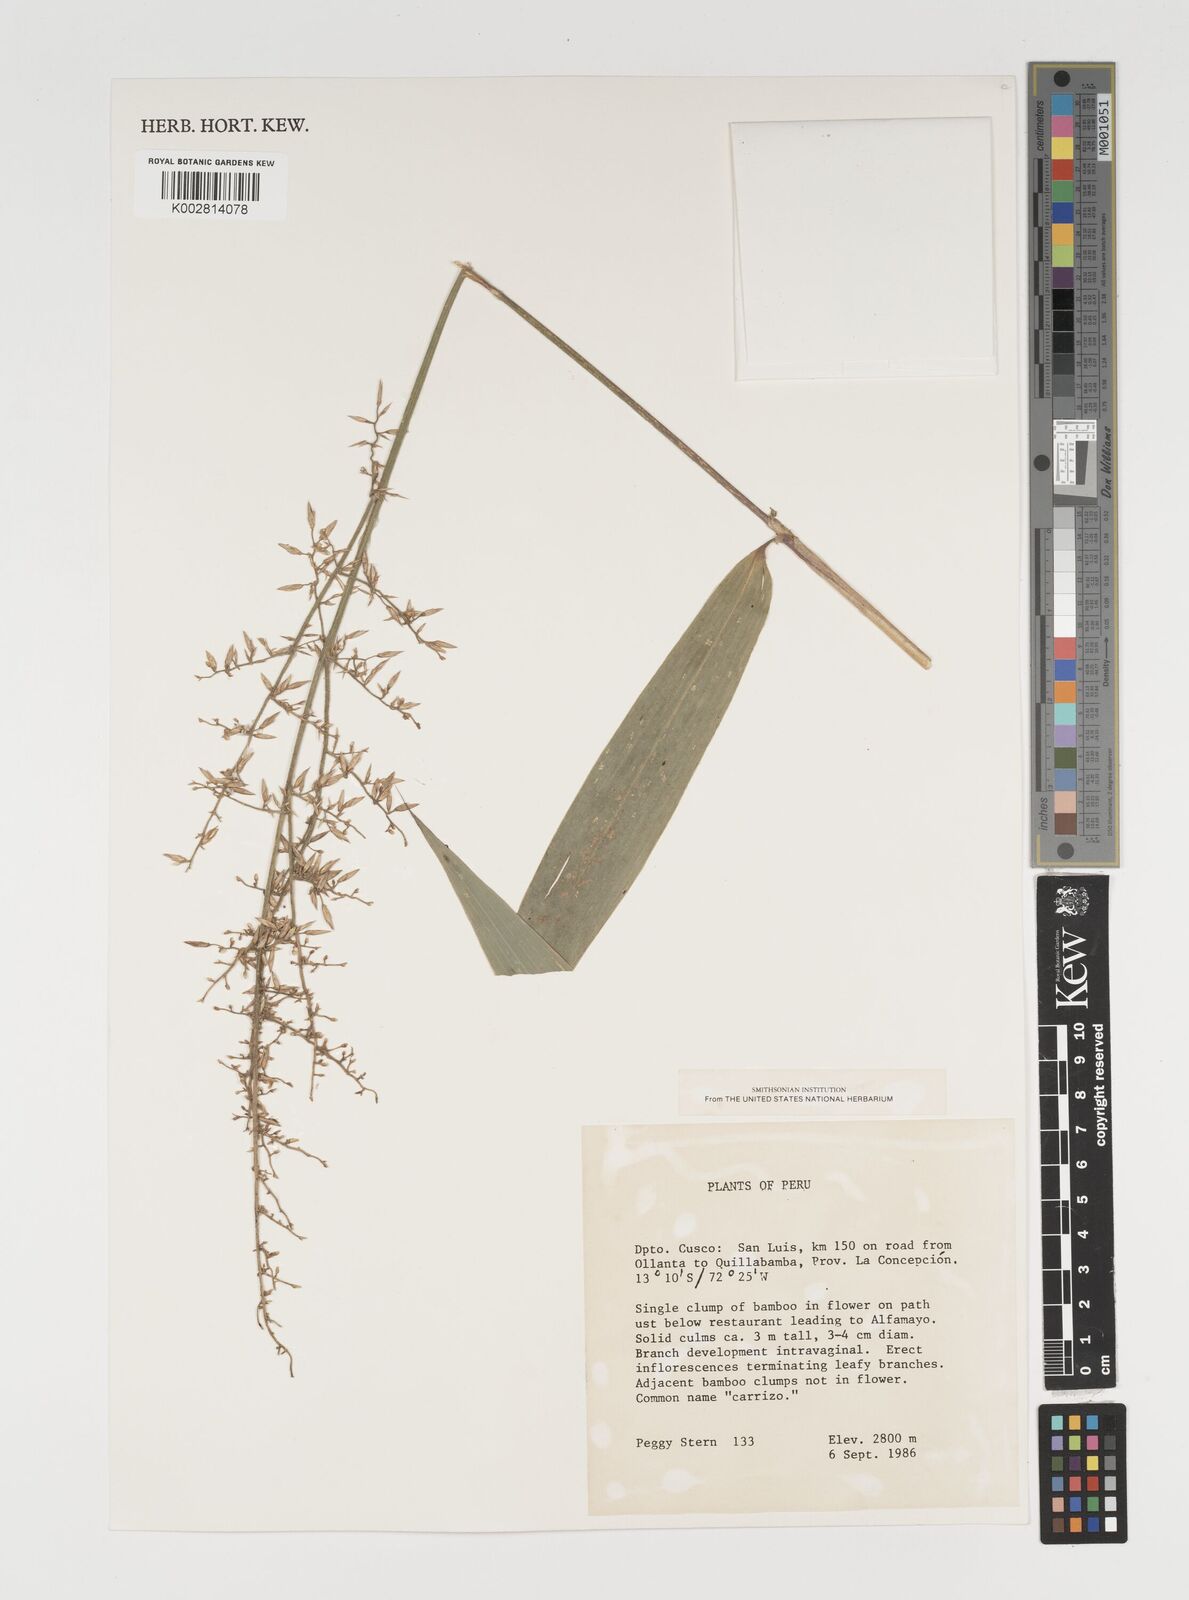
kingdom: Plantae
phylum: Tracheophyta
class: Liliopsida
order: Poales
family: Poaceae
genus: Chusquea
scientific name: Chusquea
